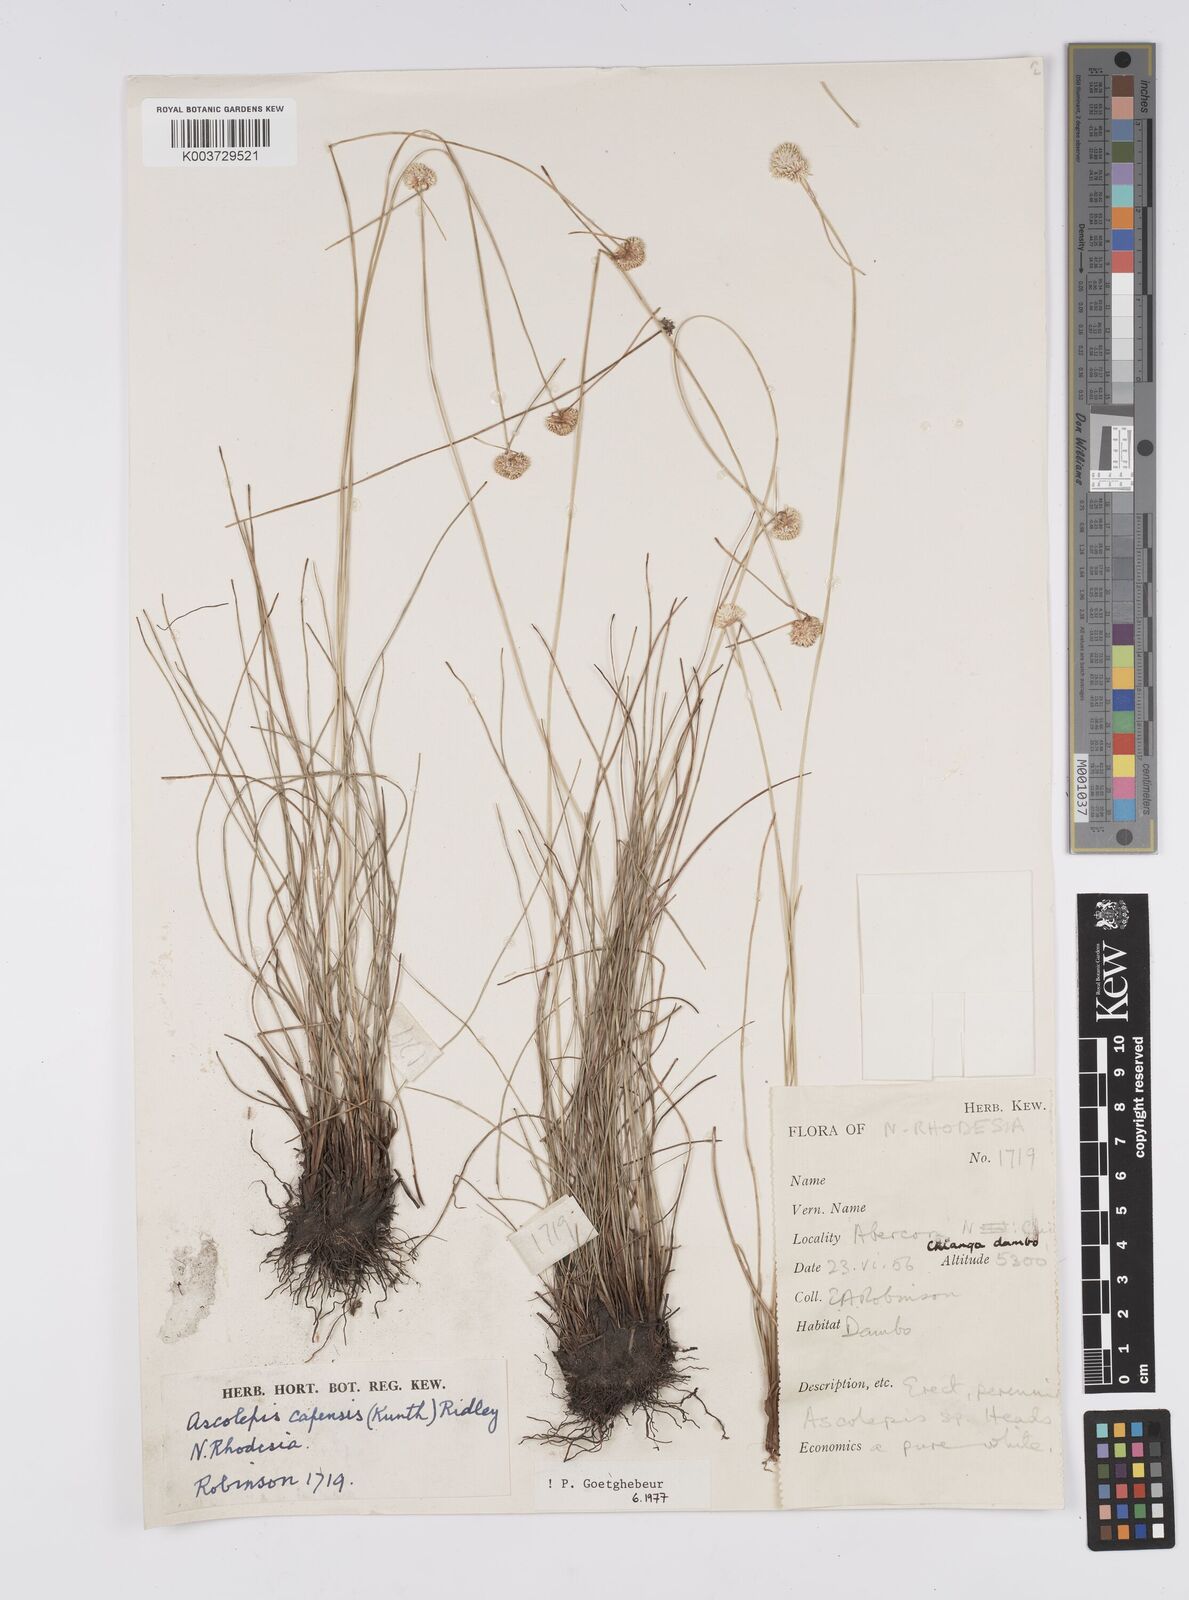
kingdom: Plantae
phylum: Tracheophyta
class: Liliopsida
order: Poales
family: Cyperaceae
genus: Cyperus
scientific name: Cyperus
